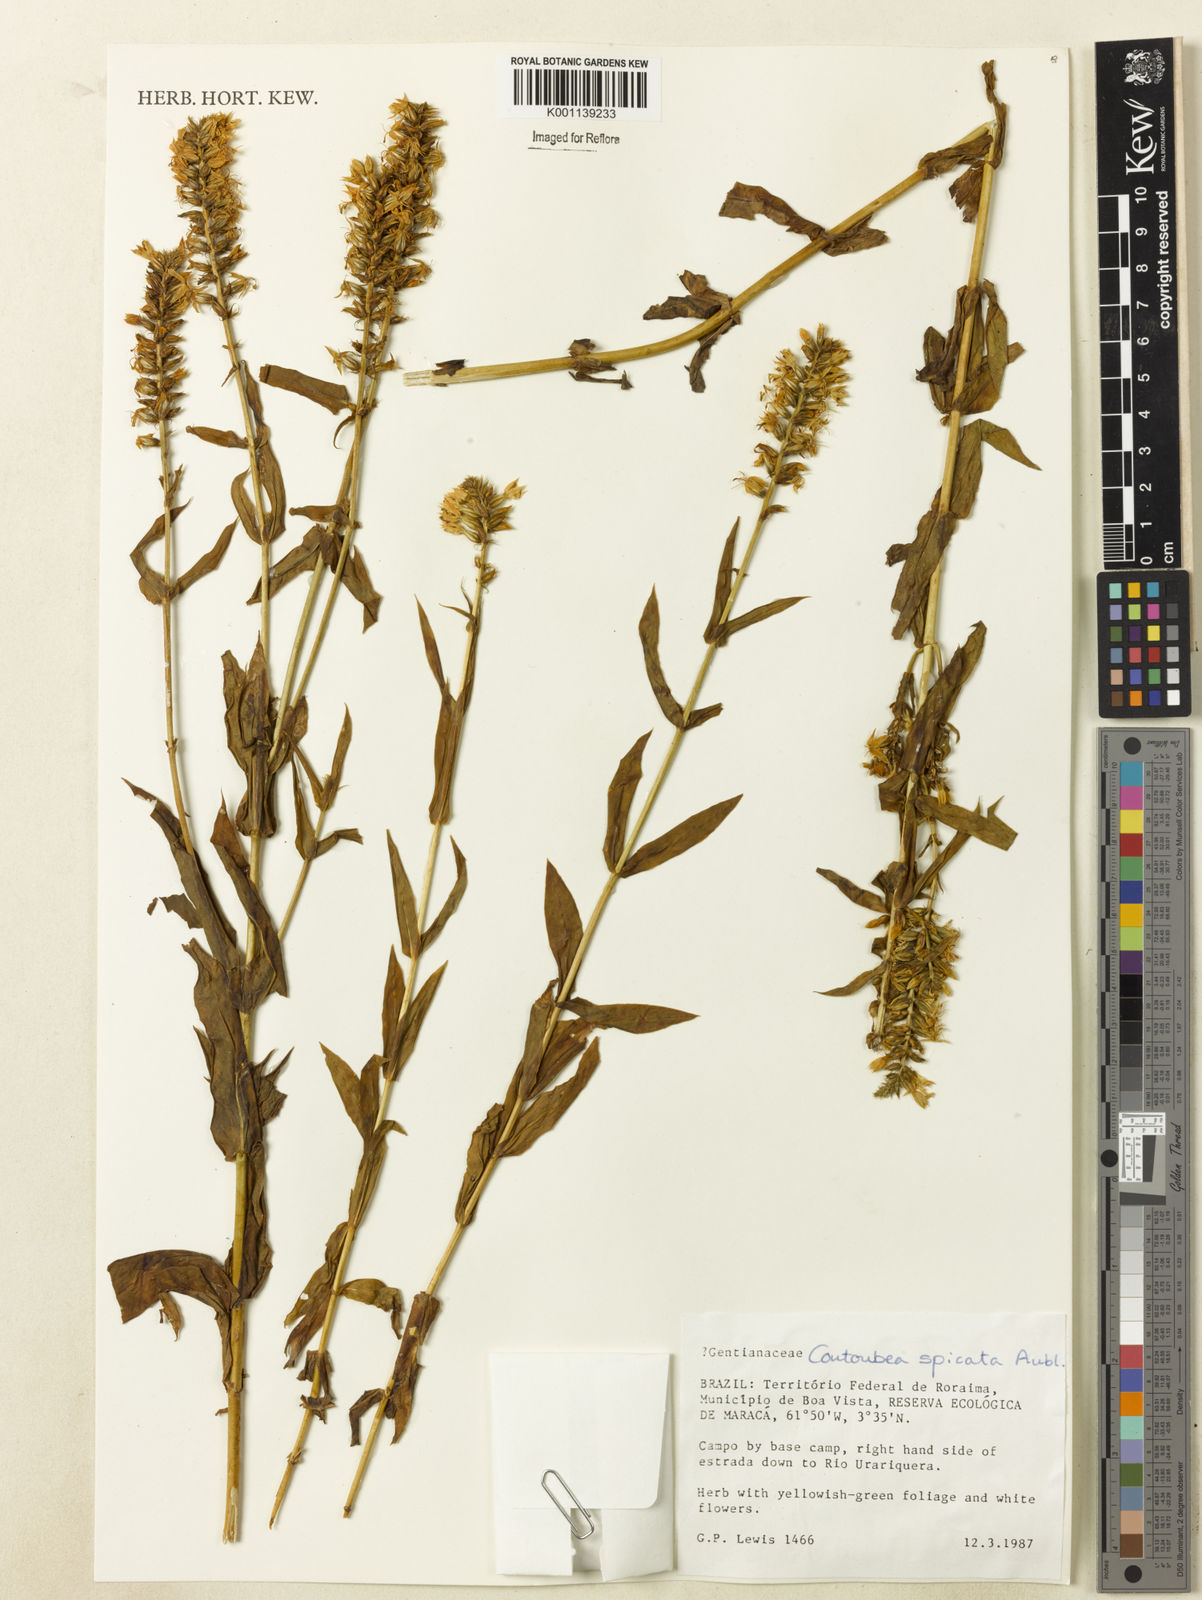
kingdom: Plantae
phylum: Tracheophyta
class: Magnoliopsida
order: Gentianales
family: Gentianaceae
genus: Coutoubea
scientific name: Coutoubea spicata
